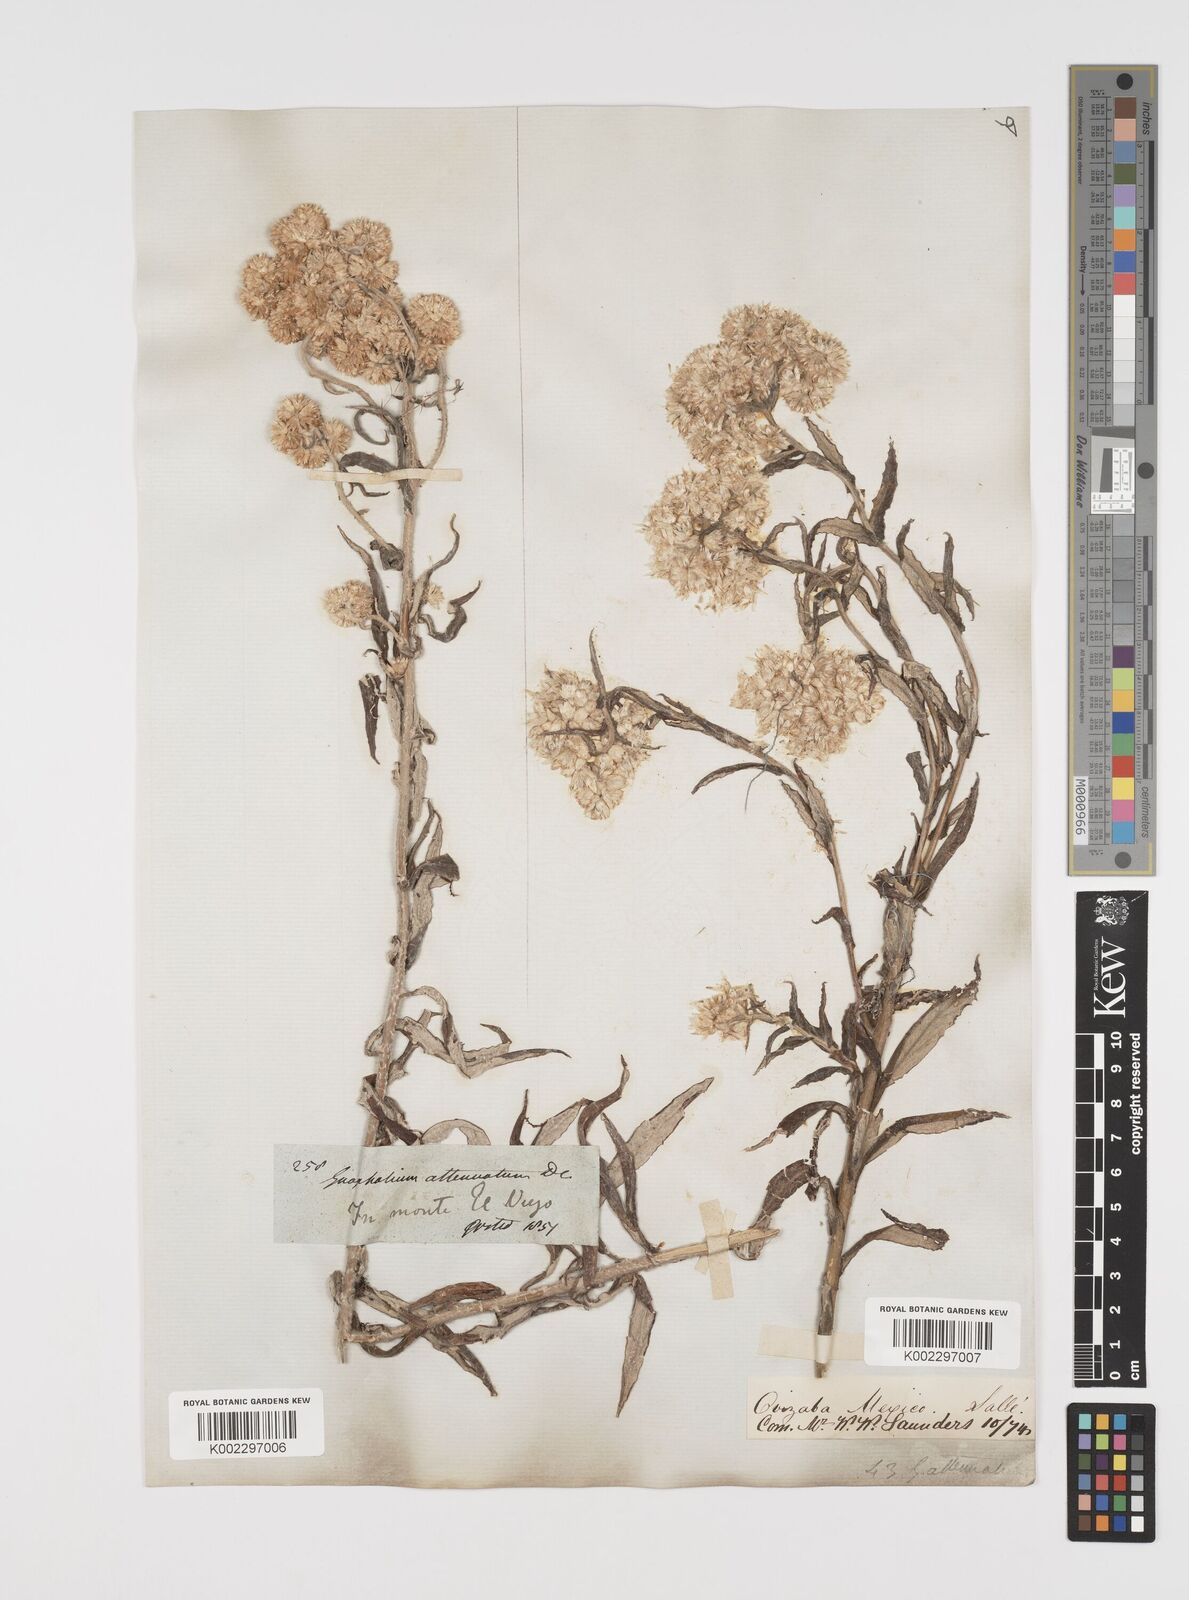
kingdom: Plantae
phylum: Tracheophyta
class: Magnoliopsida
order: Asterales
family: Asteraceae
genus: Pseudognaphalium
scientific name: Pseudognaphalium attenuatum
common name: Tapered cudweed
